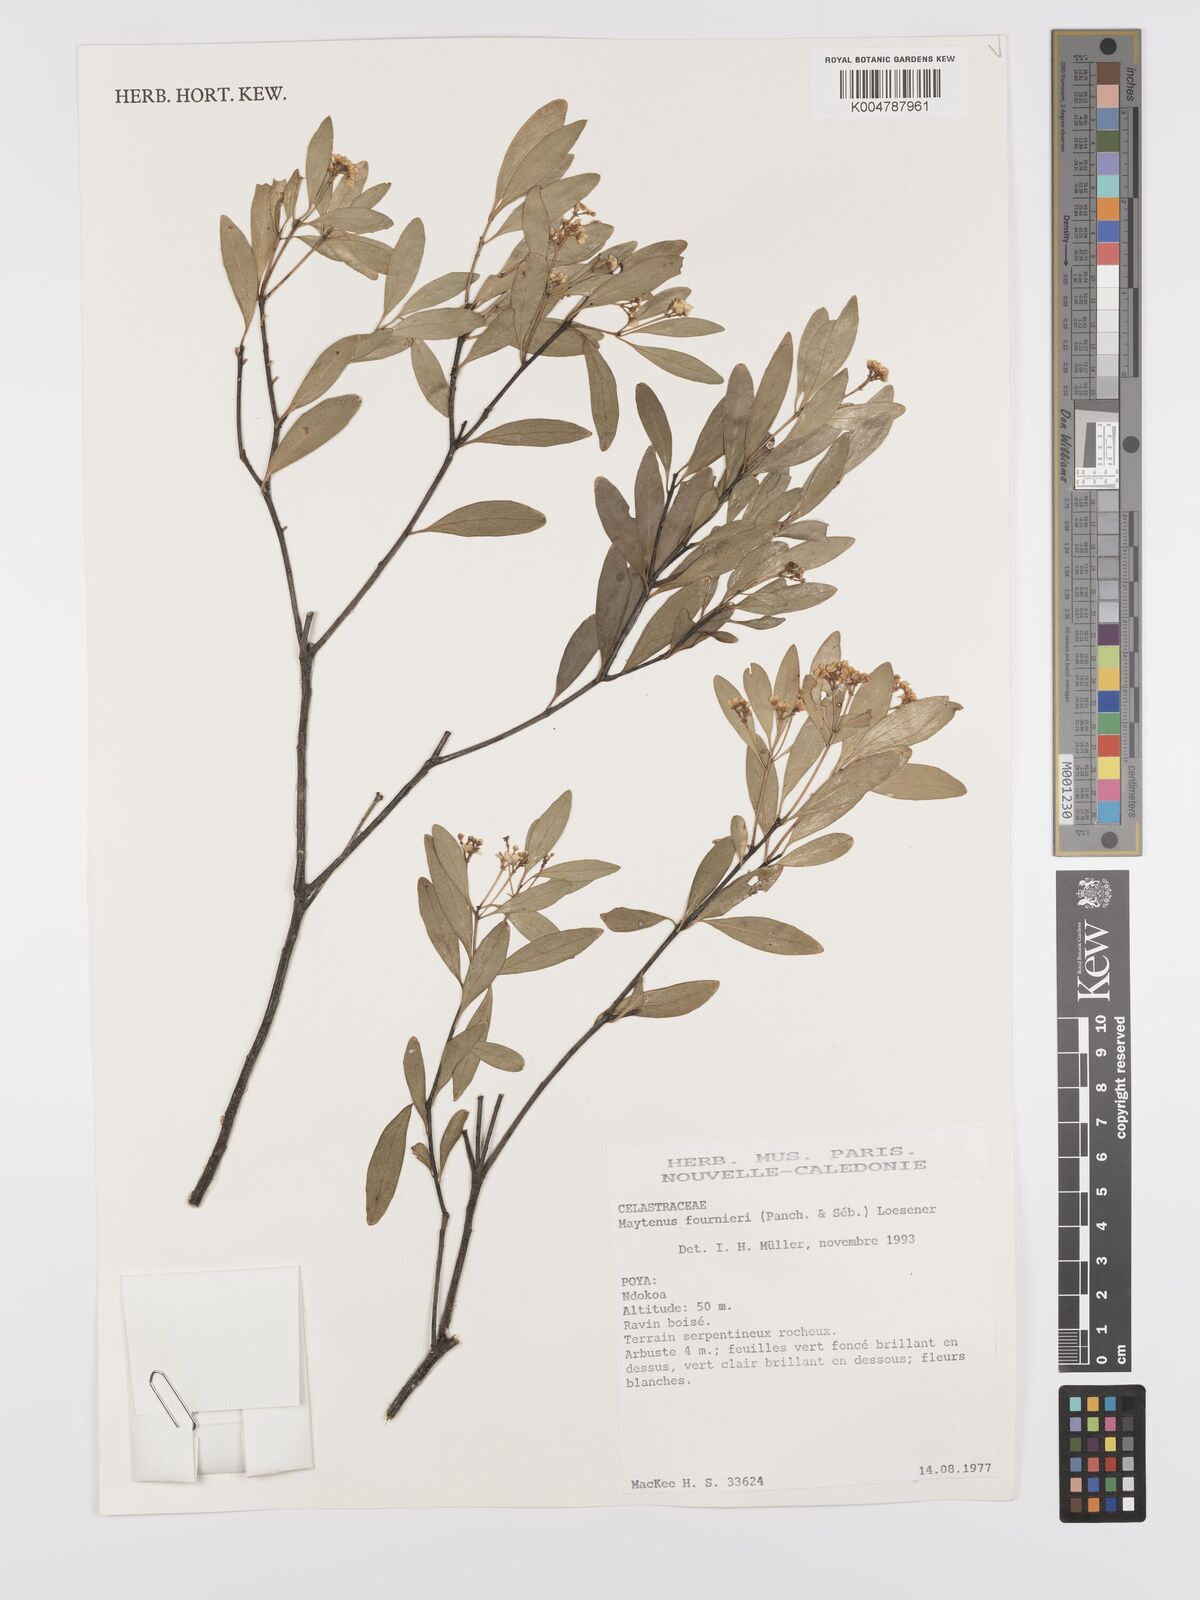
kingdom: Plantae
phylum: Tracheophyta
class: Magnoliopsida
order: Celastrales
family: Celastraceae
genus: Denhamia
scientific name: Denhamia
